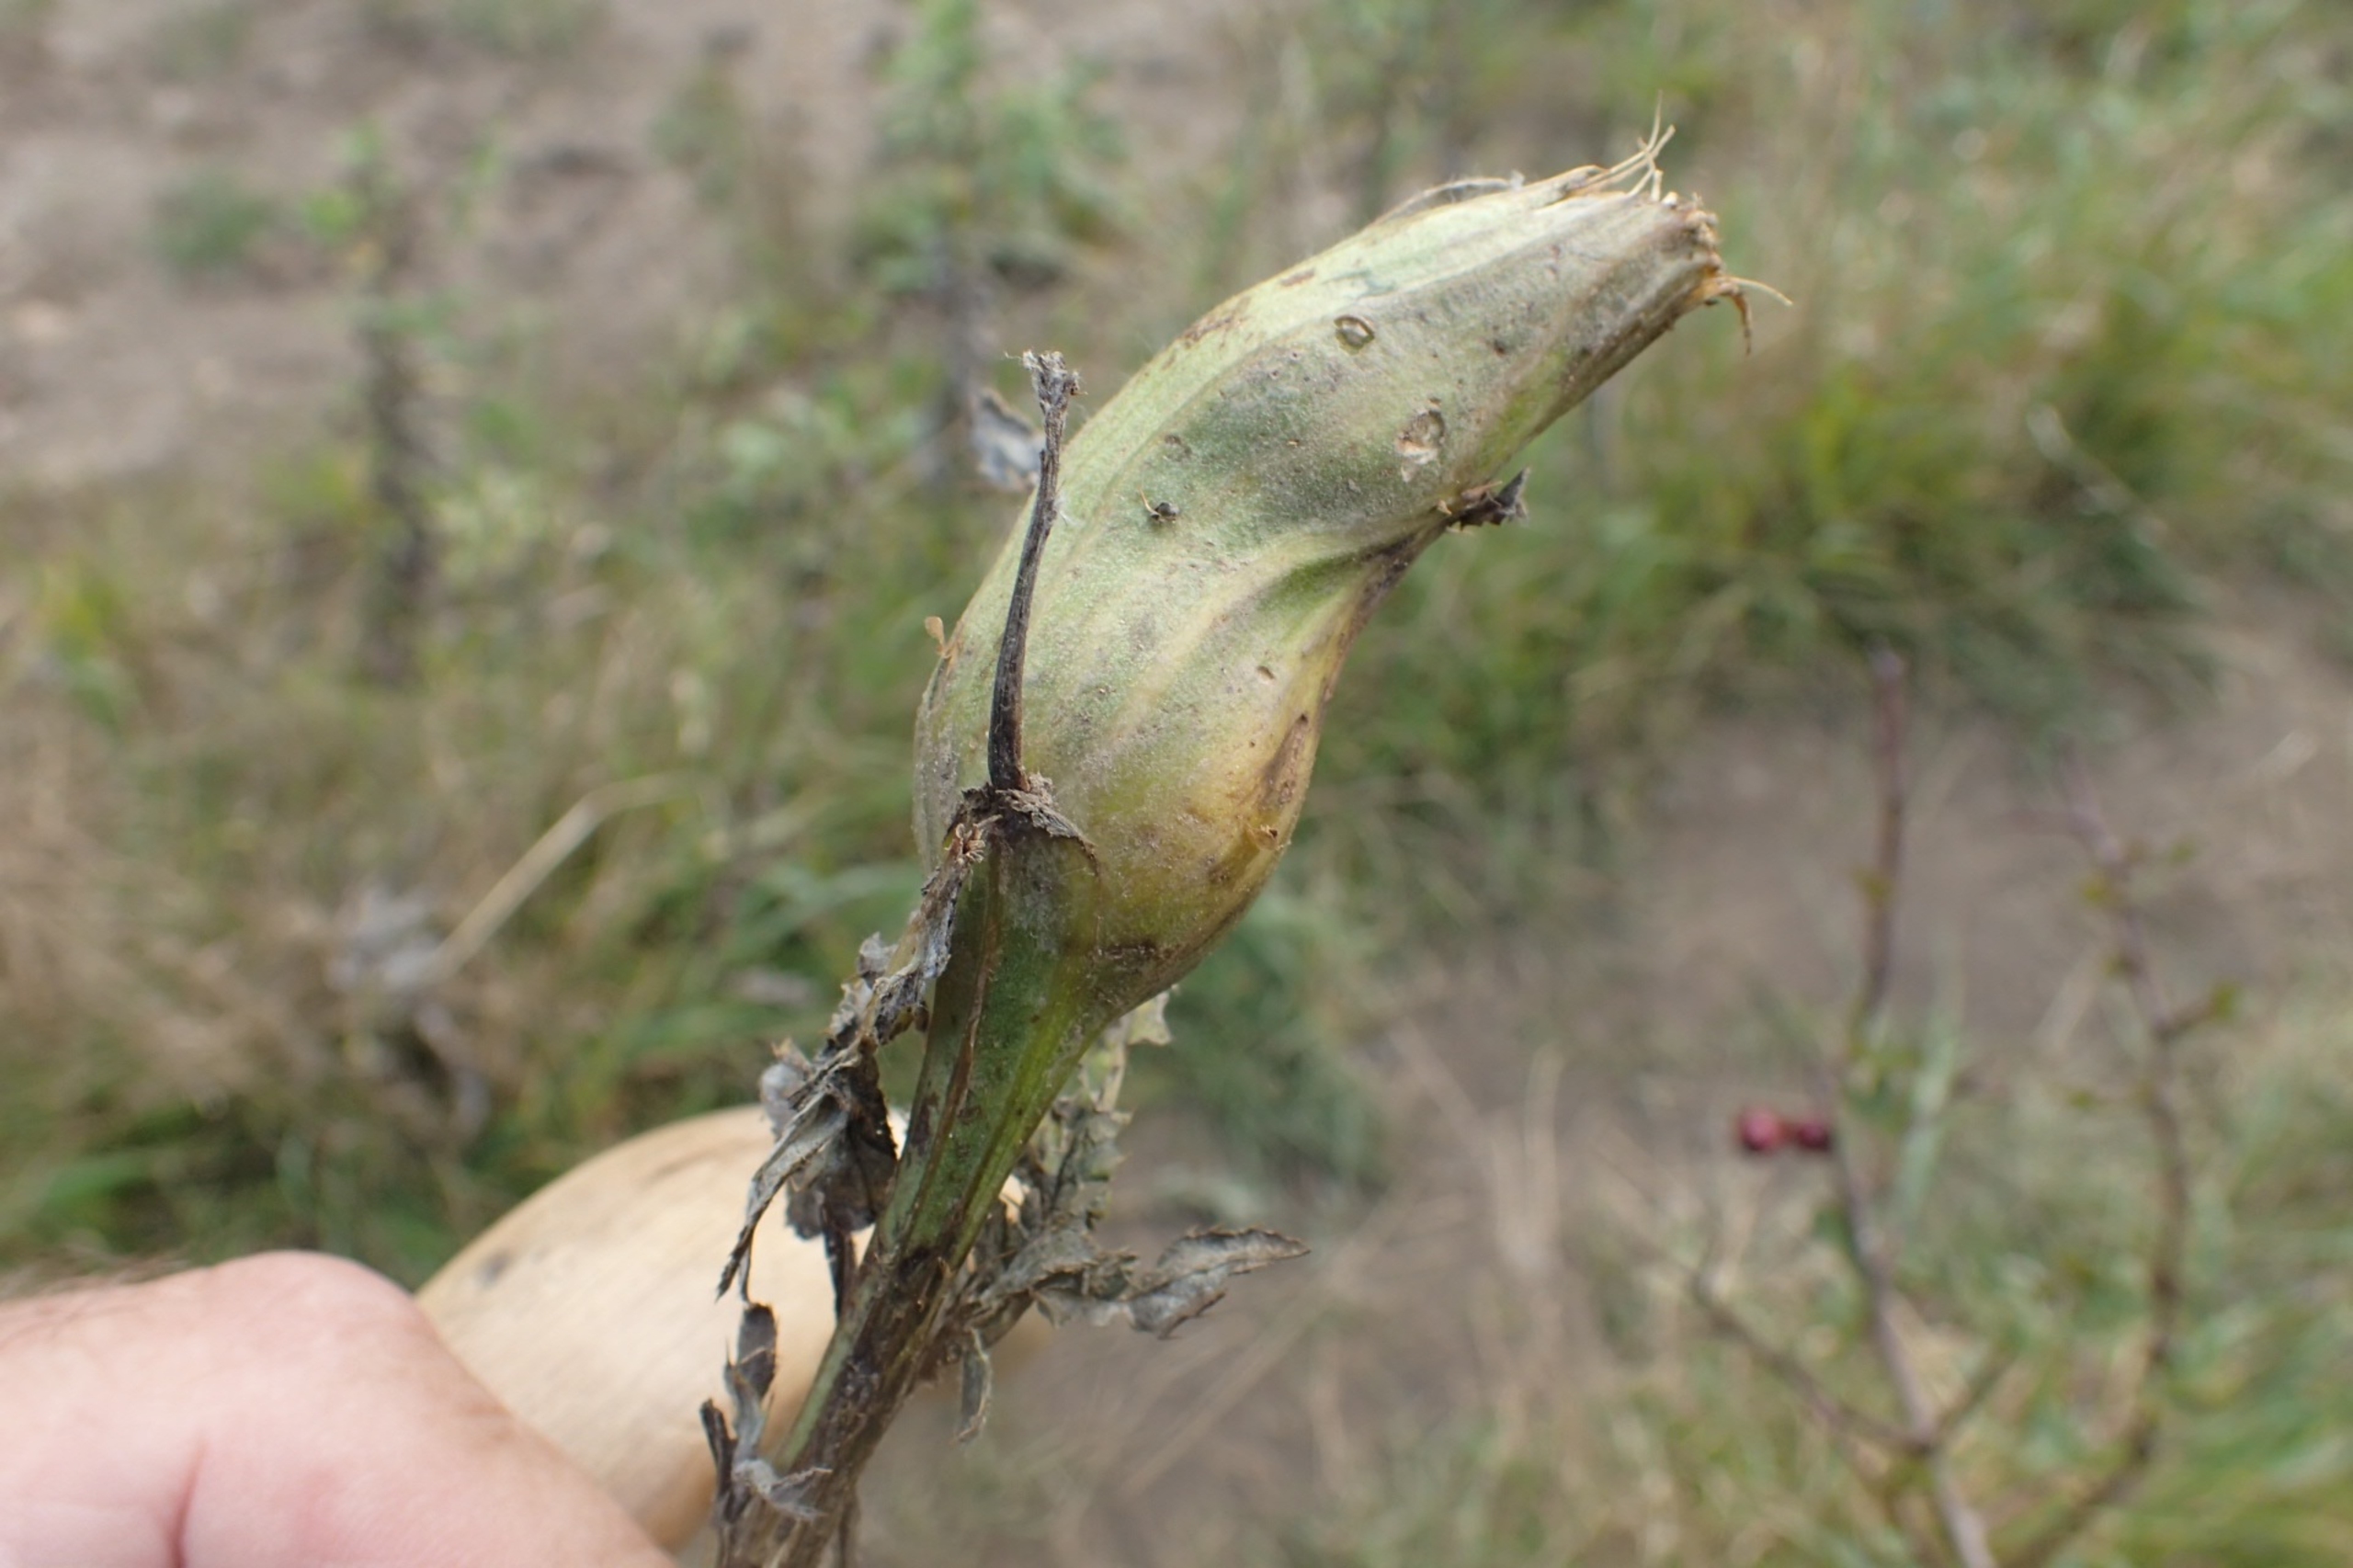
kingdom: Animalia
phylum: Arthropoda
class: Insecta
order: Diptera
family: Tephritidae
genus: Urophora
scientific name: Urophora cardui
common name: Tidselbåndflue
